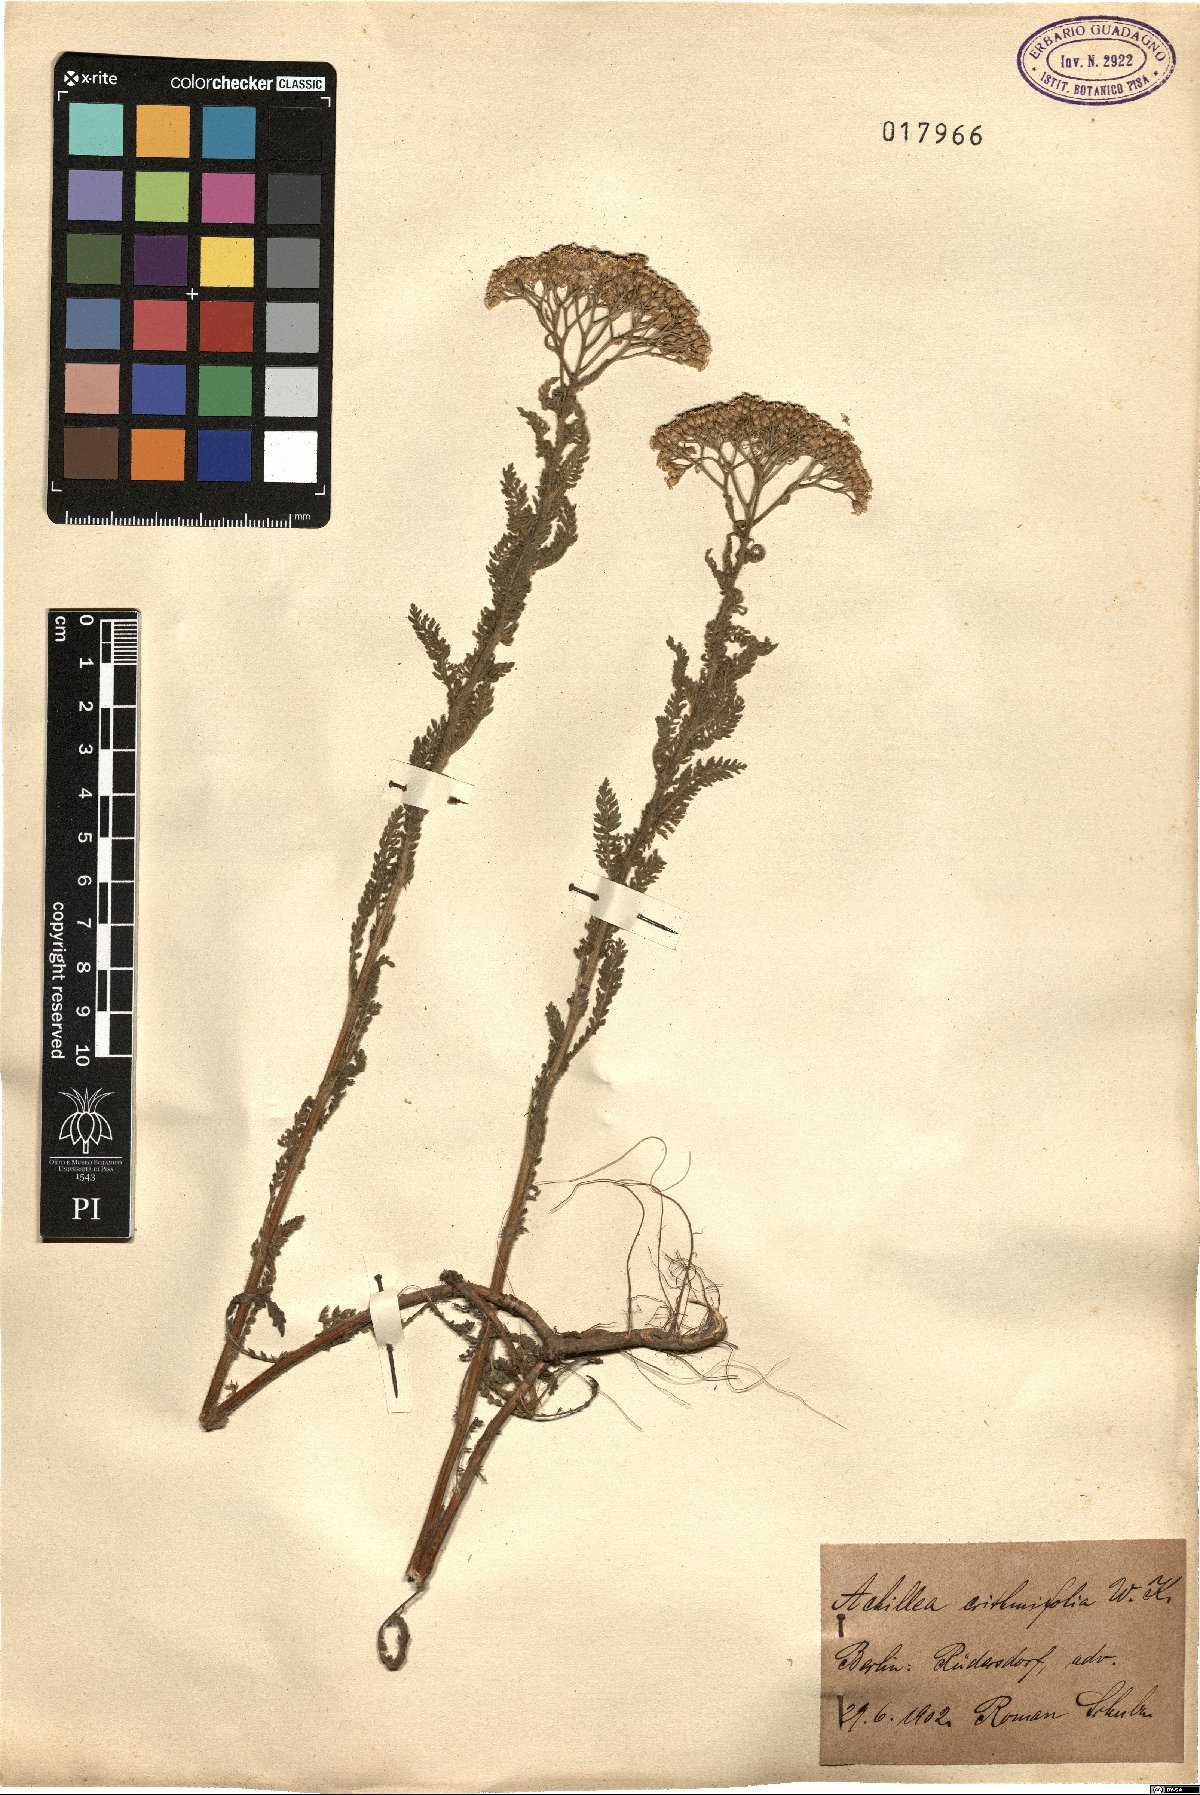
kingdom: Plantae
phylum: Tracheophyta
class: Magnoliopsida
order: Asterales
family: Asteraceae
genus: Achillea
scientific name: Achillea crithmifolia
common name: Yarrow
